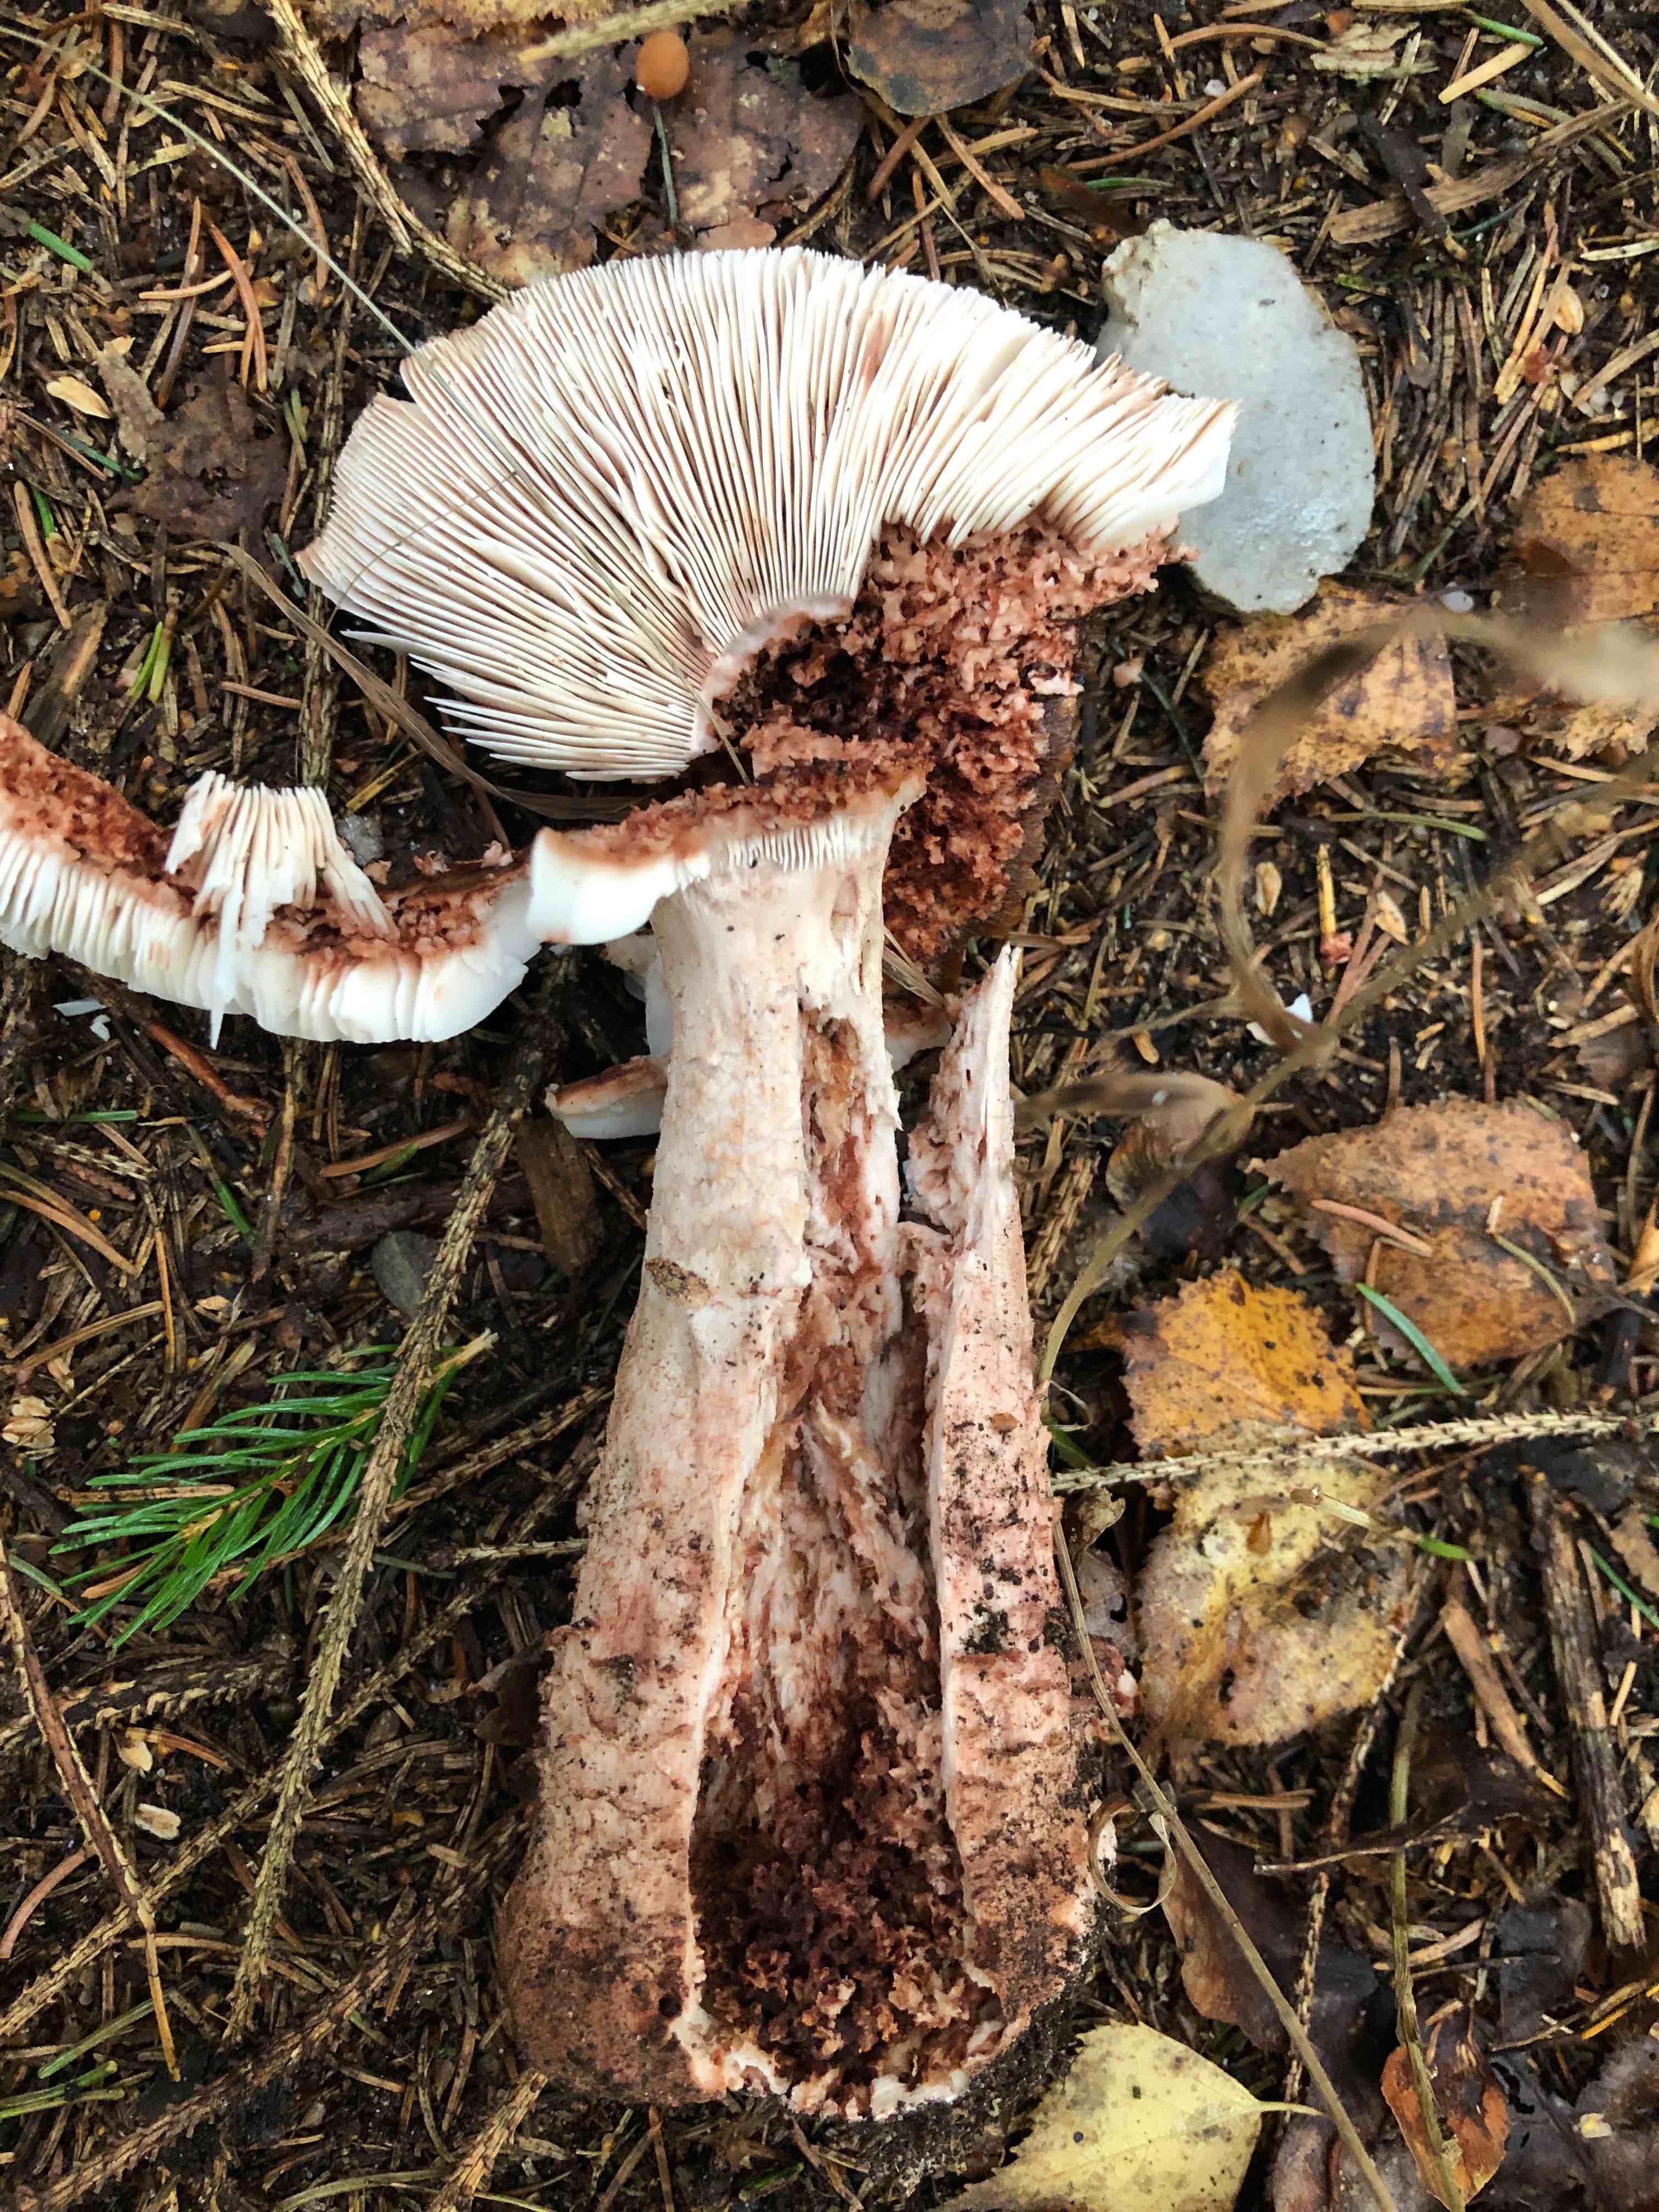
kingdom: Fungi
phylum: Basidiomycota
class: Agaricomycetes
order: Agaricales
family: Amanitaceae
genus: Amanita
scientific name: Amanita rubescens
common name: rødmende fluesvamp
